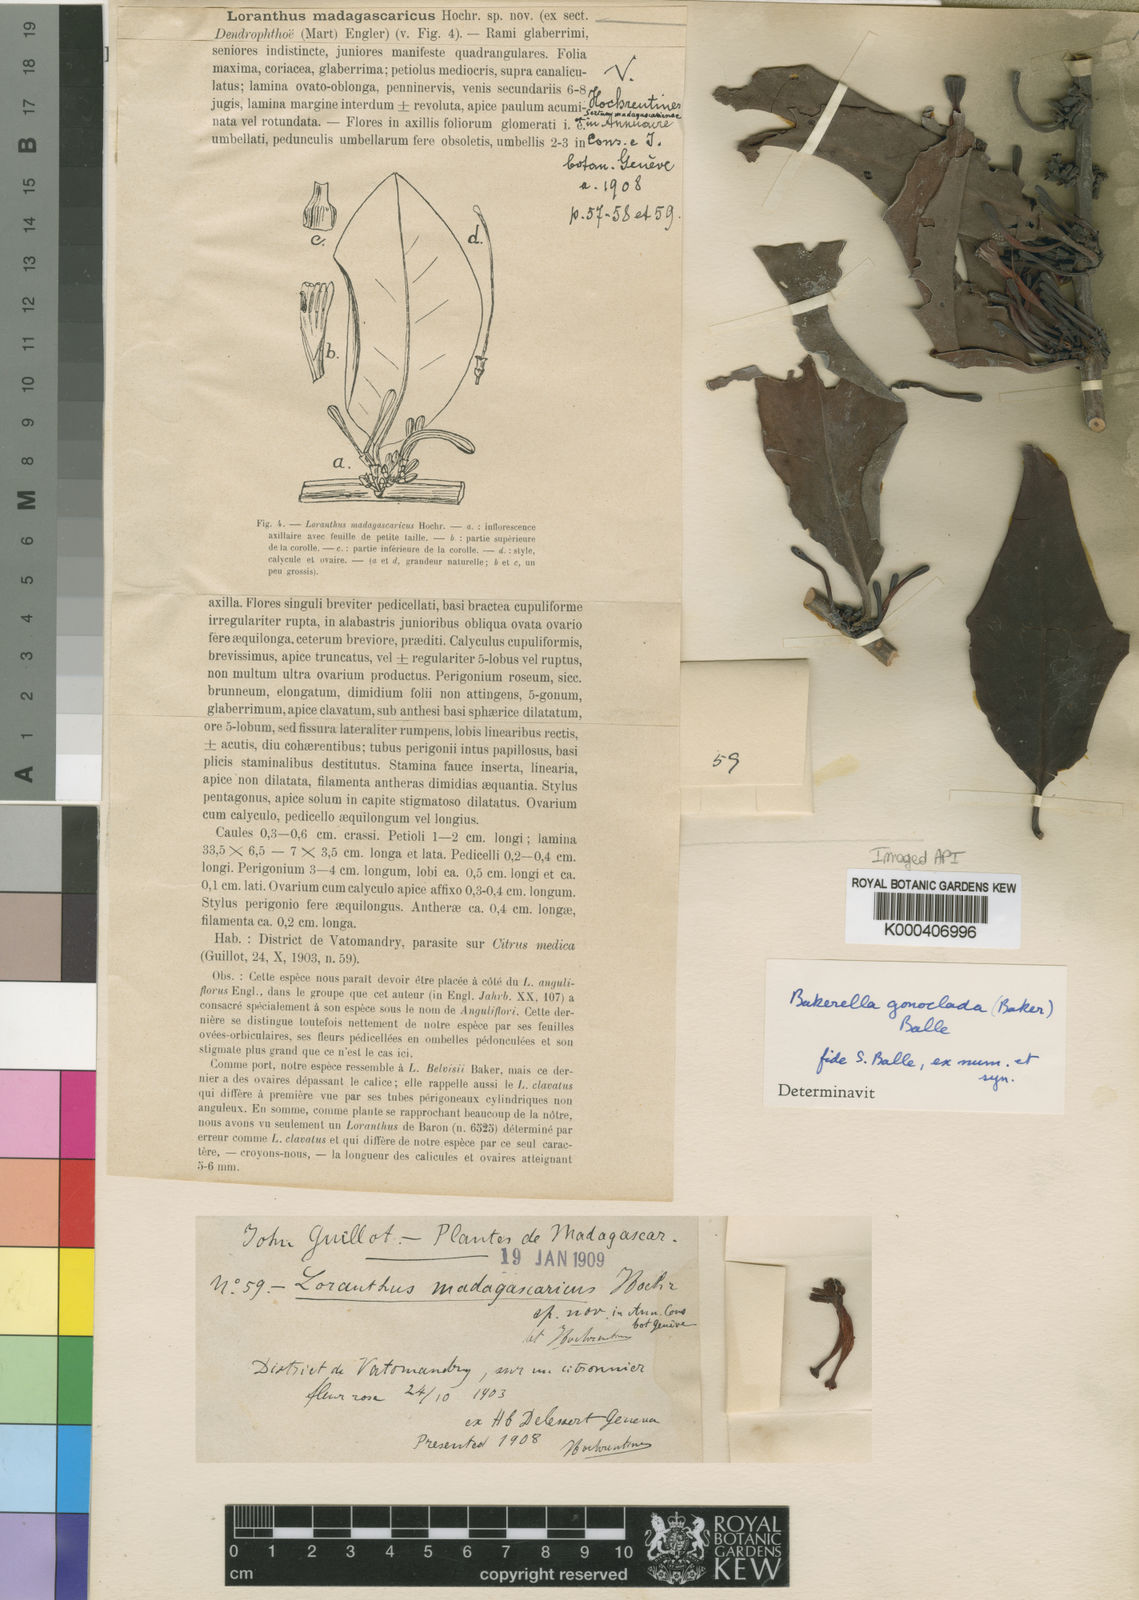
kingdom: Plantae
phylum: Tracheophyta
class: Magnoliopsida
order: Santalales
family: Loranthaceae
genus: Bakerella
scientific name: Bakerella gonoclada
